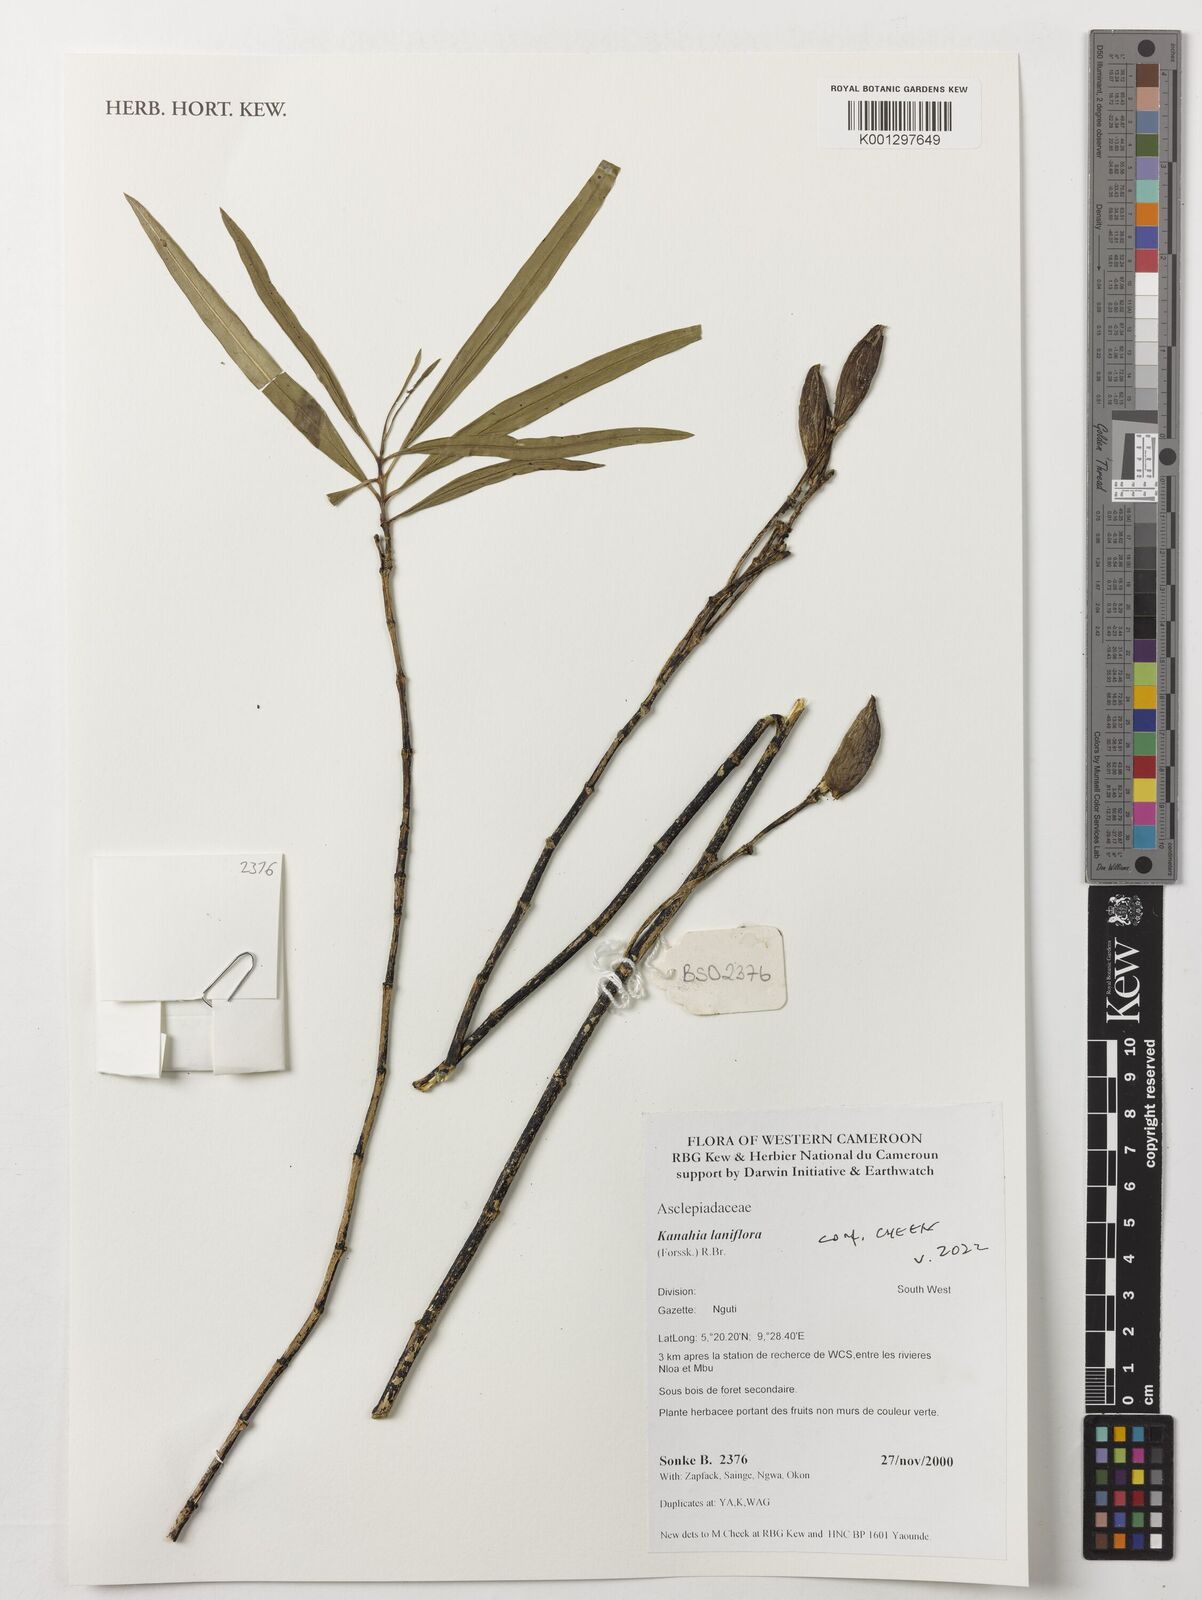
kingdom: Plantae
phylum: Tracheophyta
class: Magnoliopsida
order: Gentianales
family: Apocynaceae
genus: Kanahia
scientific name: Kanahia laniflora
